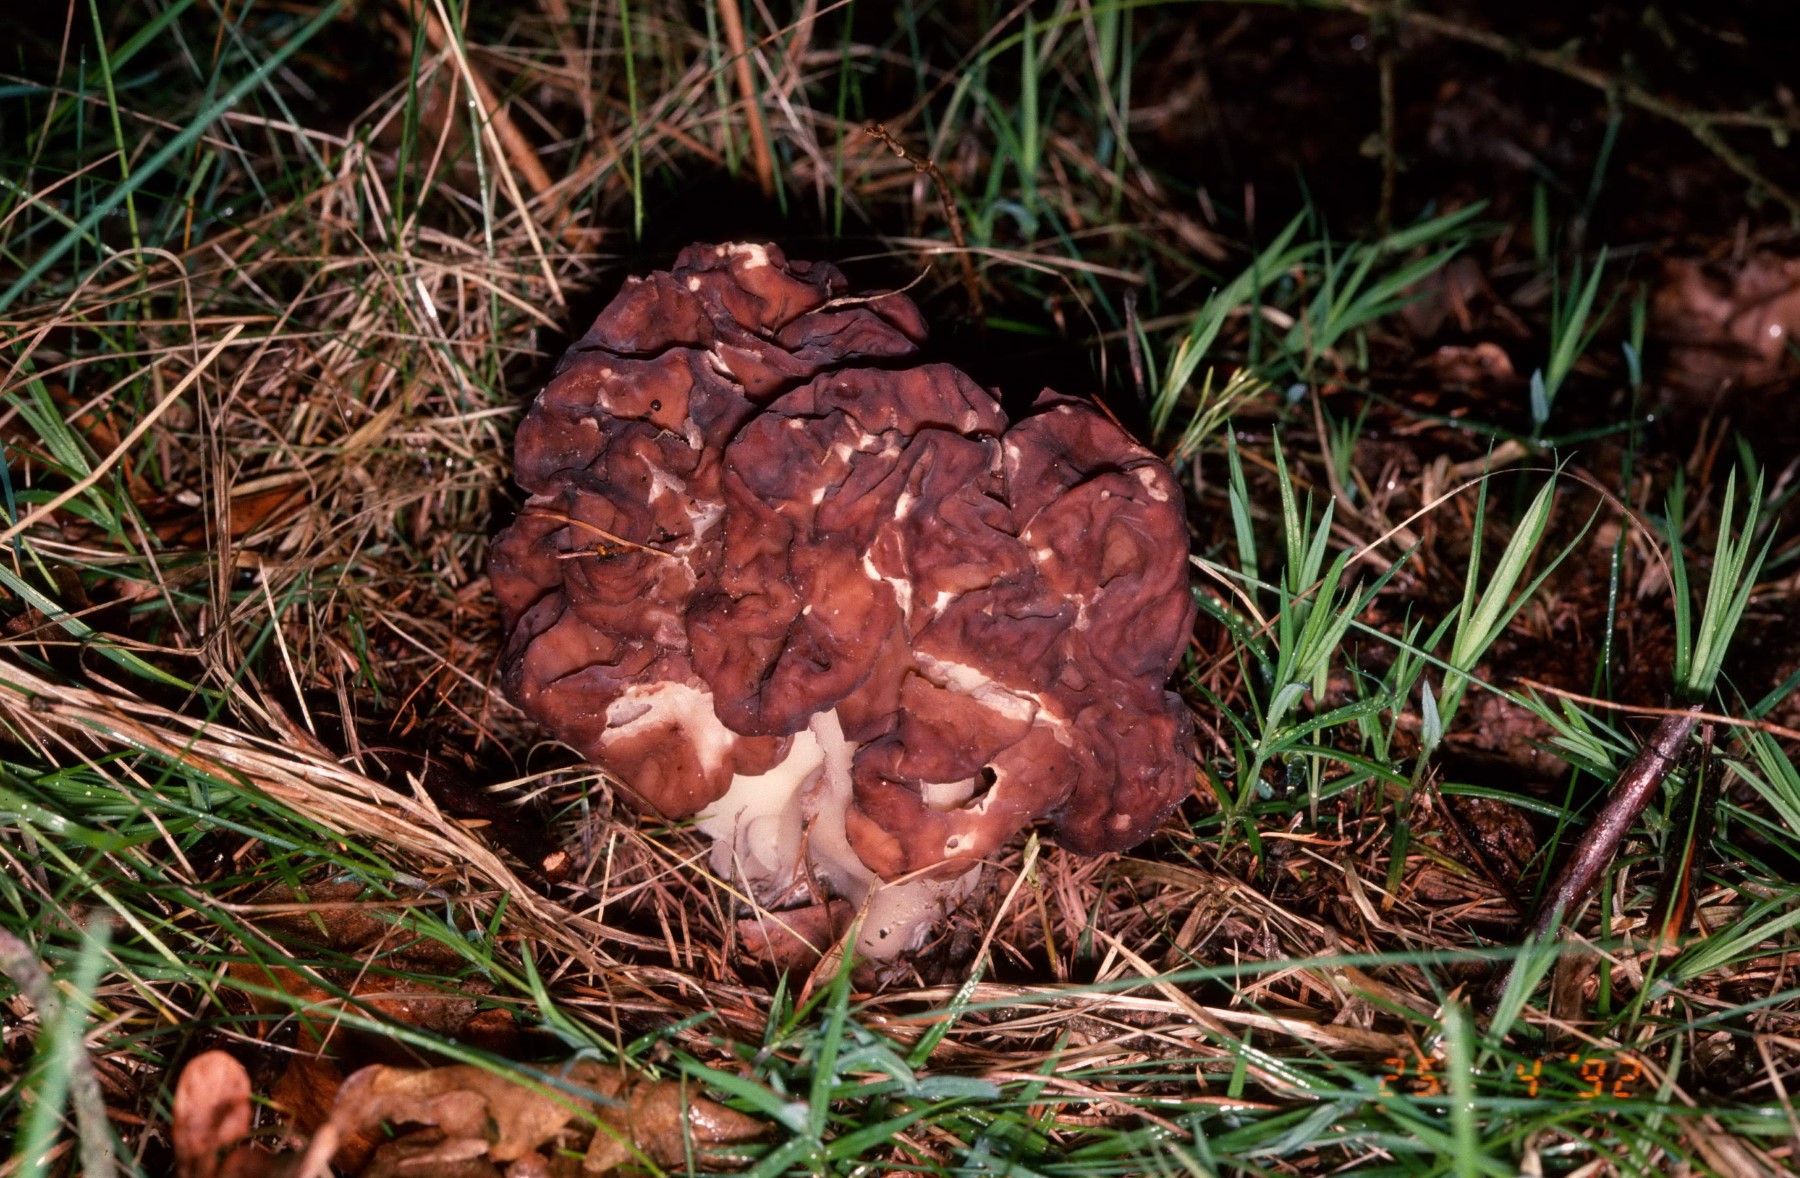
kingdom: Fungi
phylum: Ascomycota
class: Pezizomycetes
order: Pezizales
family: Discinaceae
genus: Gyromitra
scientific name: Gyromitra gigas
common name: kæmpe-stenmorkel
